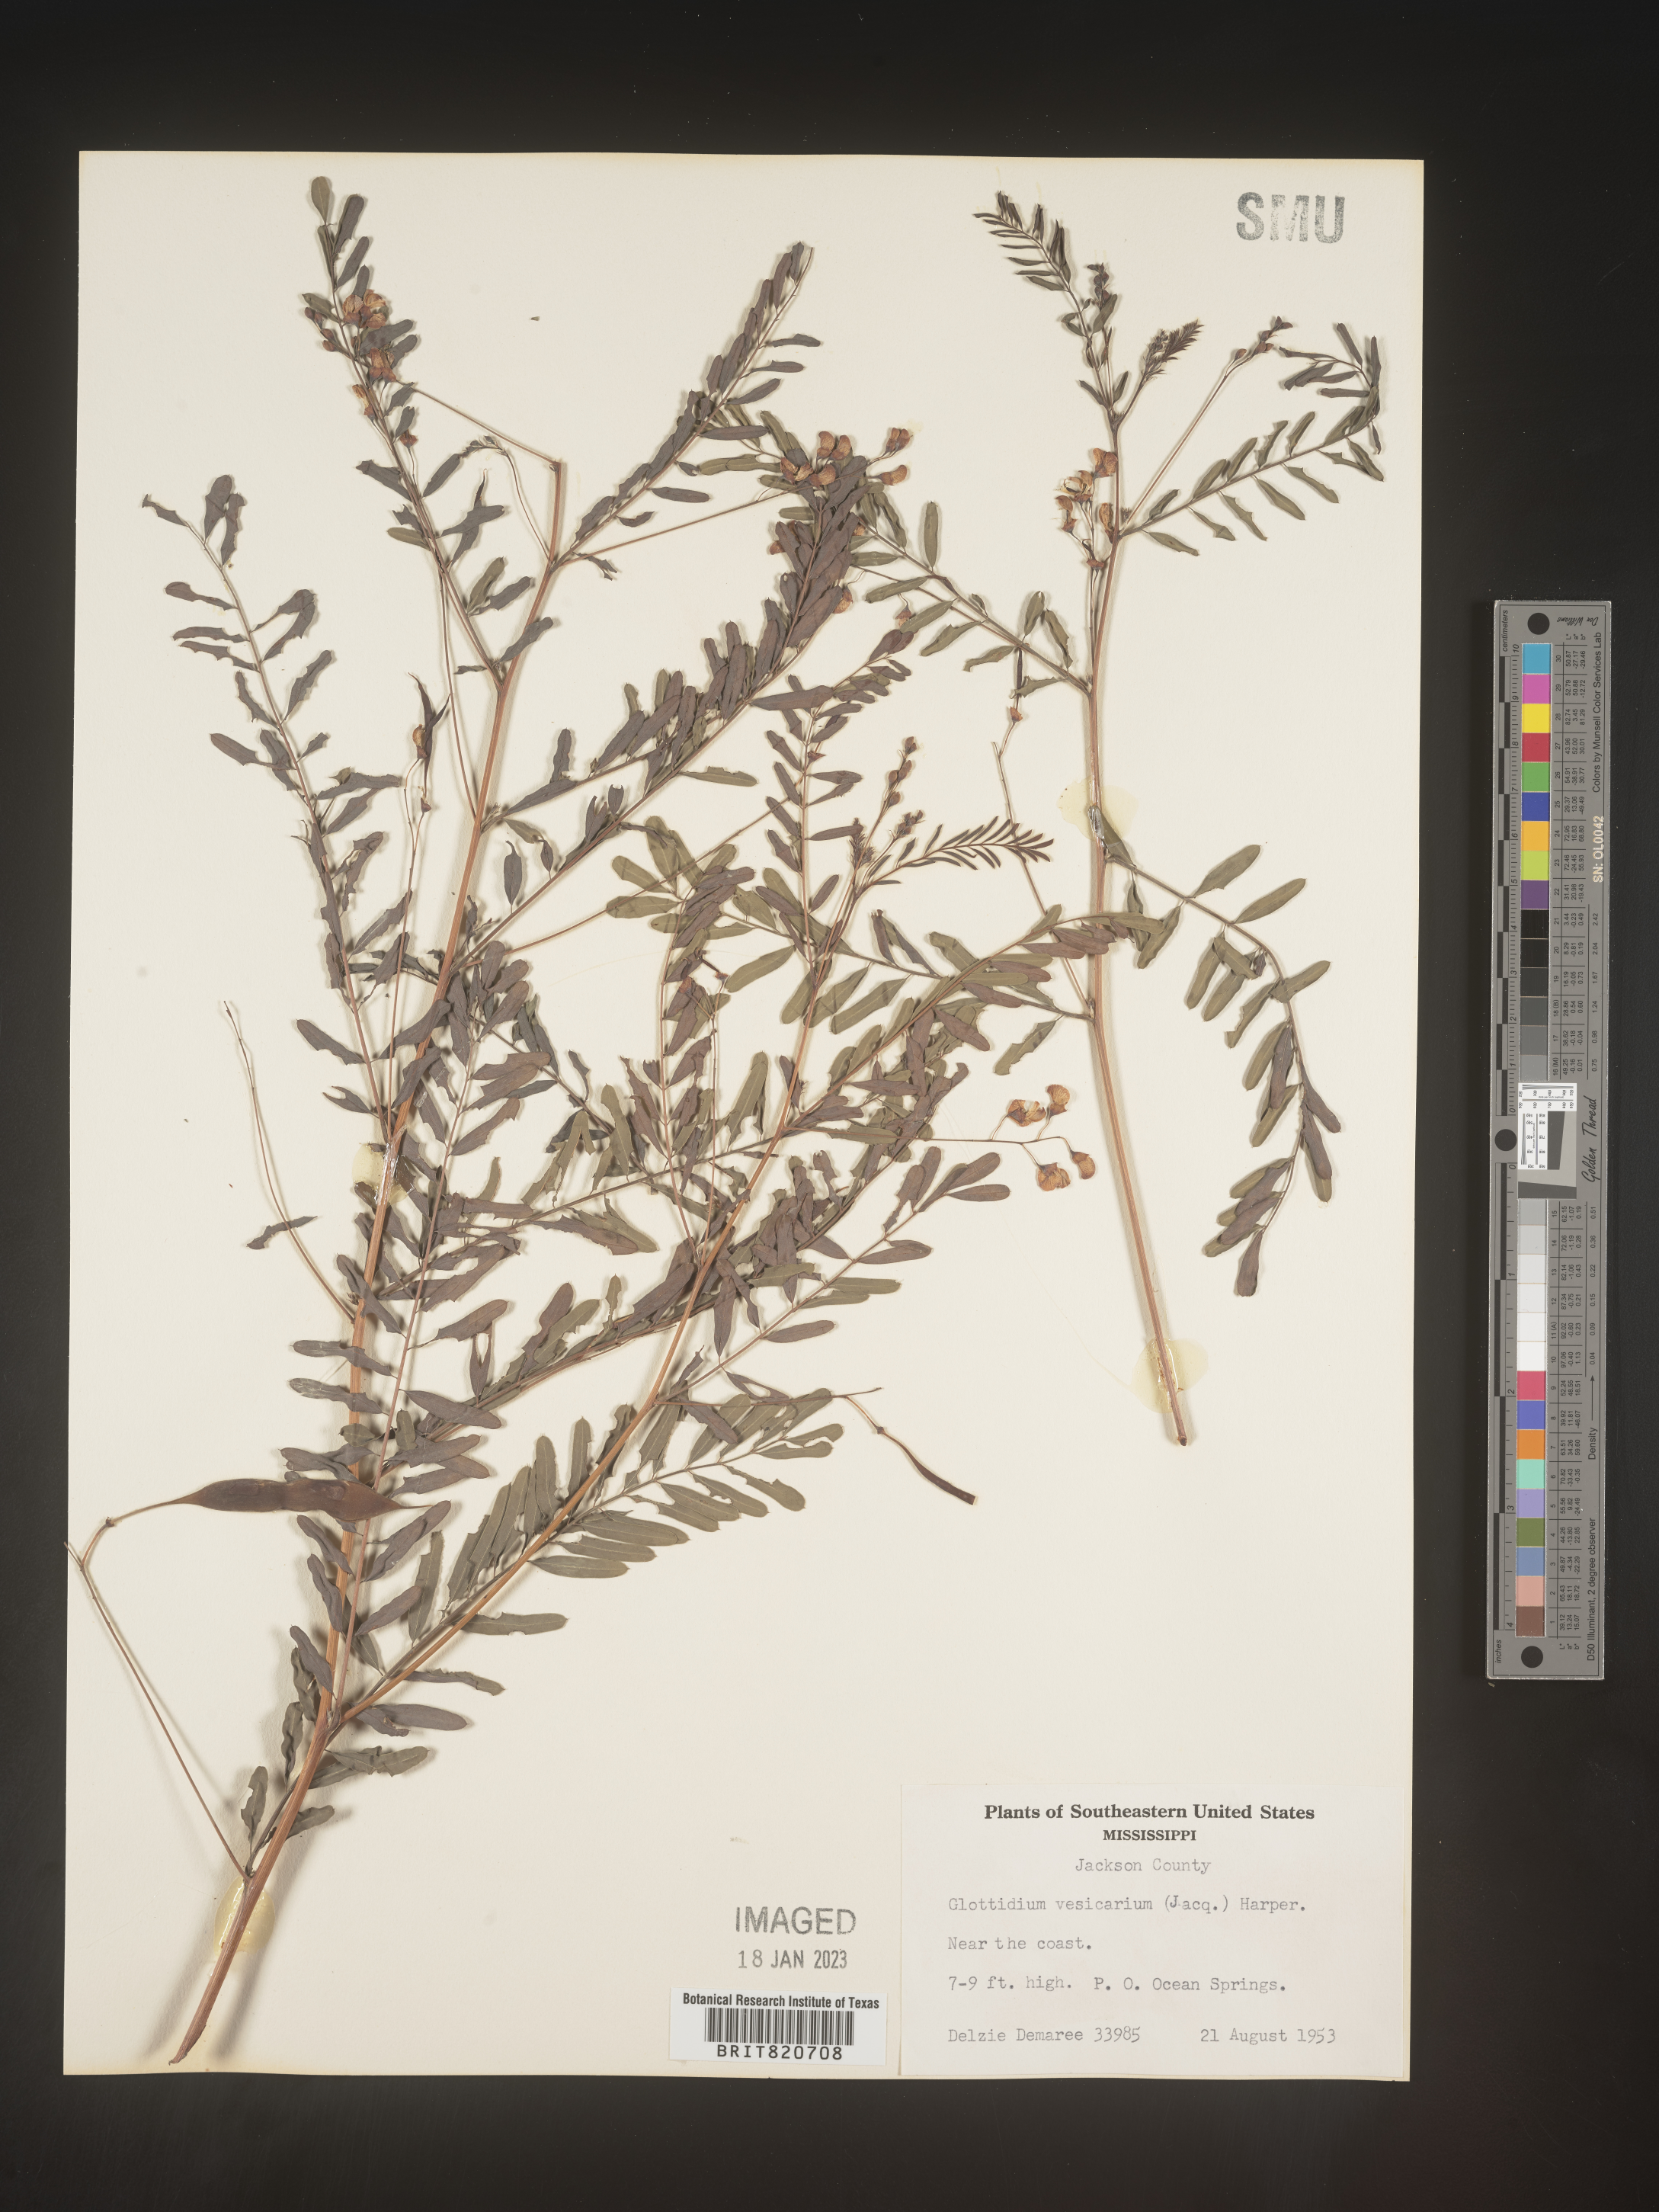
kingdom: Plantae
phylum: Tracheophyta
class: Magnoliopsida
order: Fabales
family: Fabaceae
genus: Sesbania
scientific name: Sesbania vesicaria
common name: Bagpod
